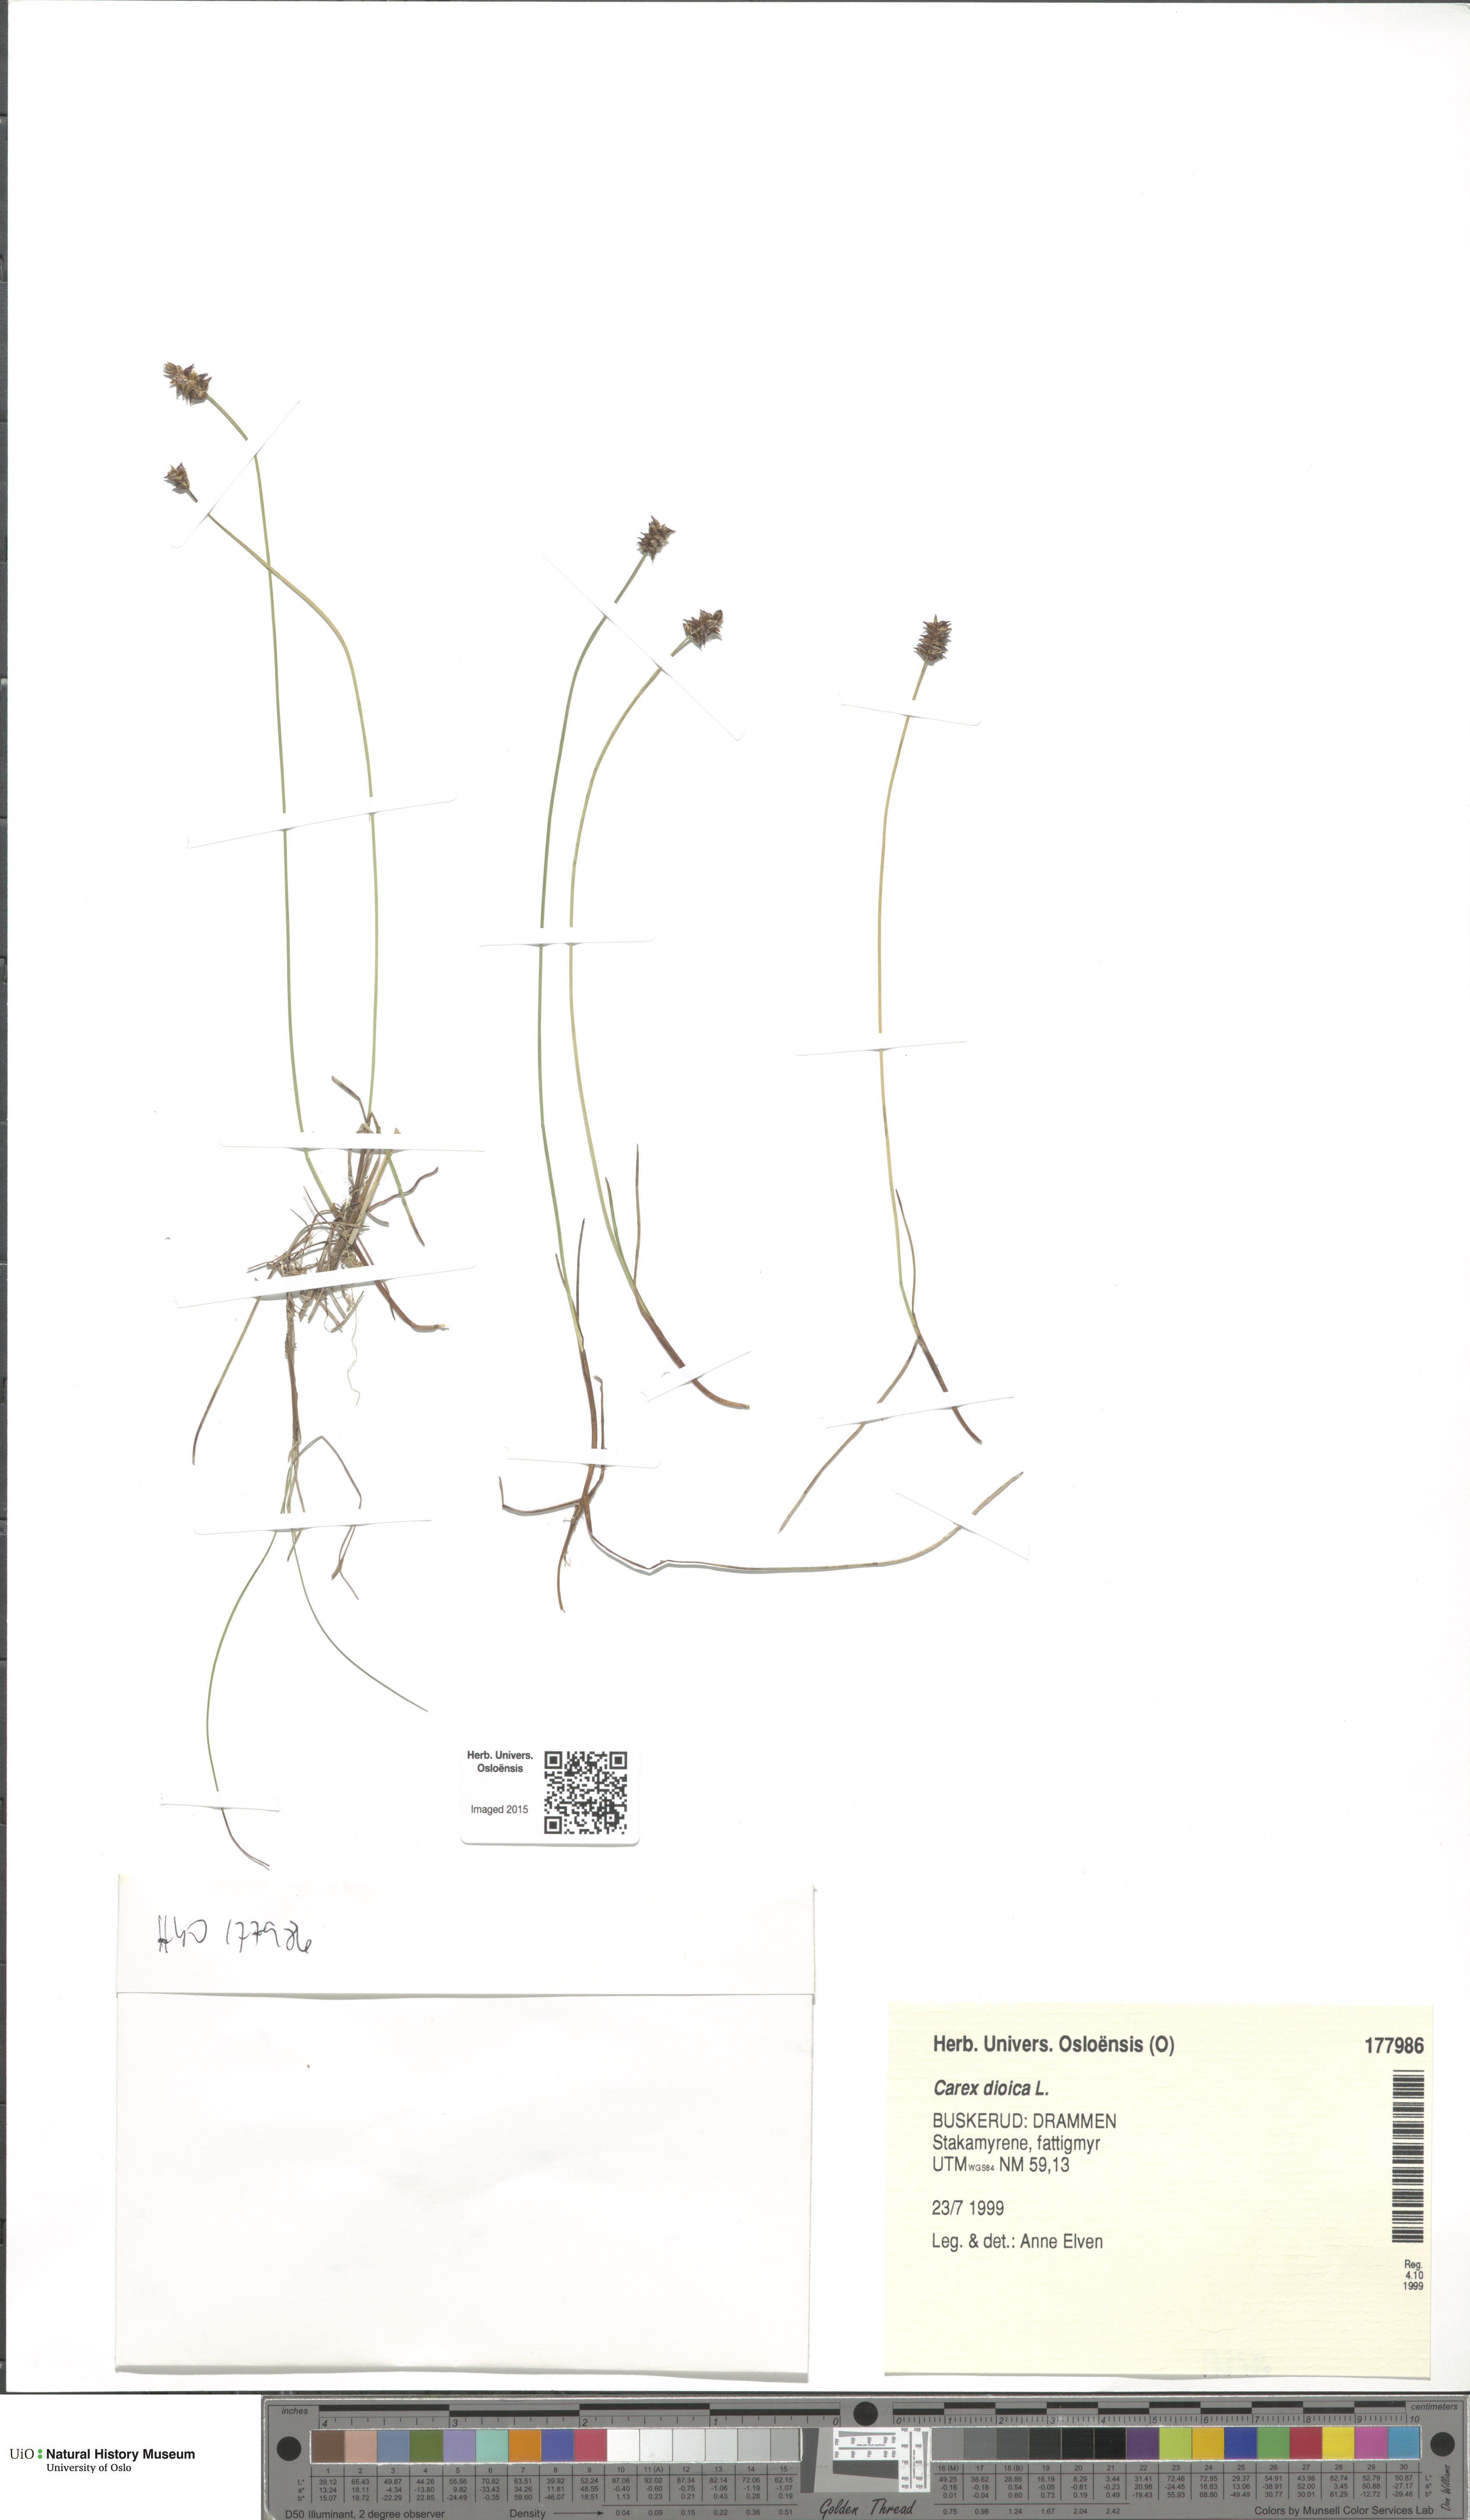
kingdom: Plantae
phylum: Tracheophyta
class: Liliopsida
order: Poales
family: Cyperaceae
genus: Carex
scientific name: Carex dioica
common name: Dioecious sedge
